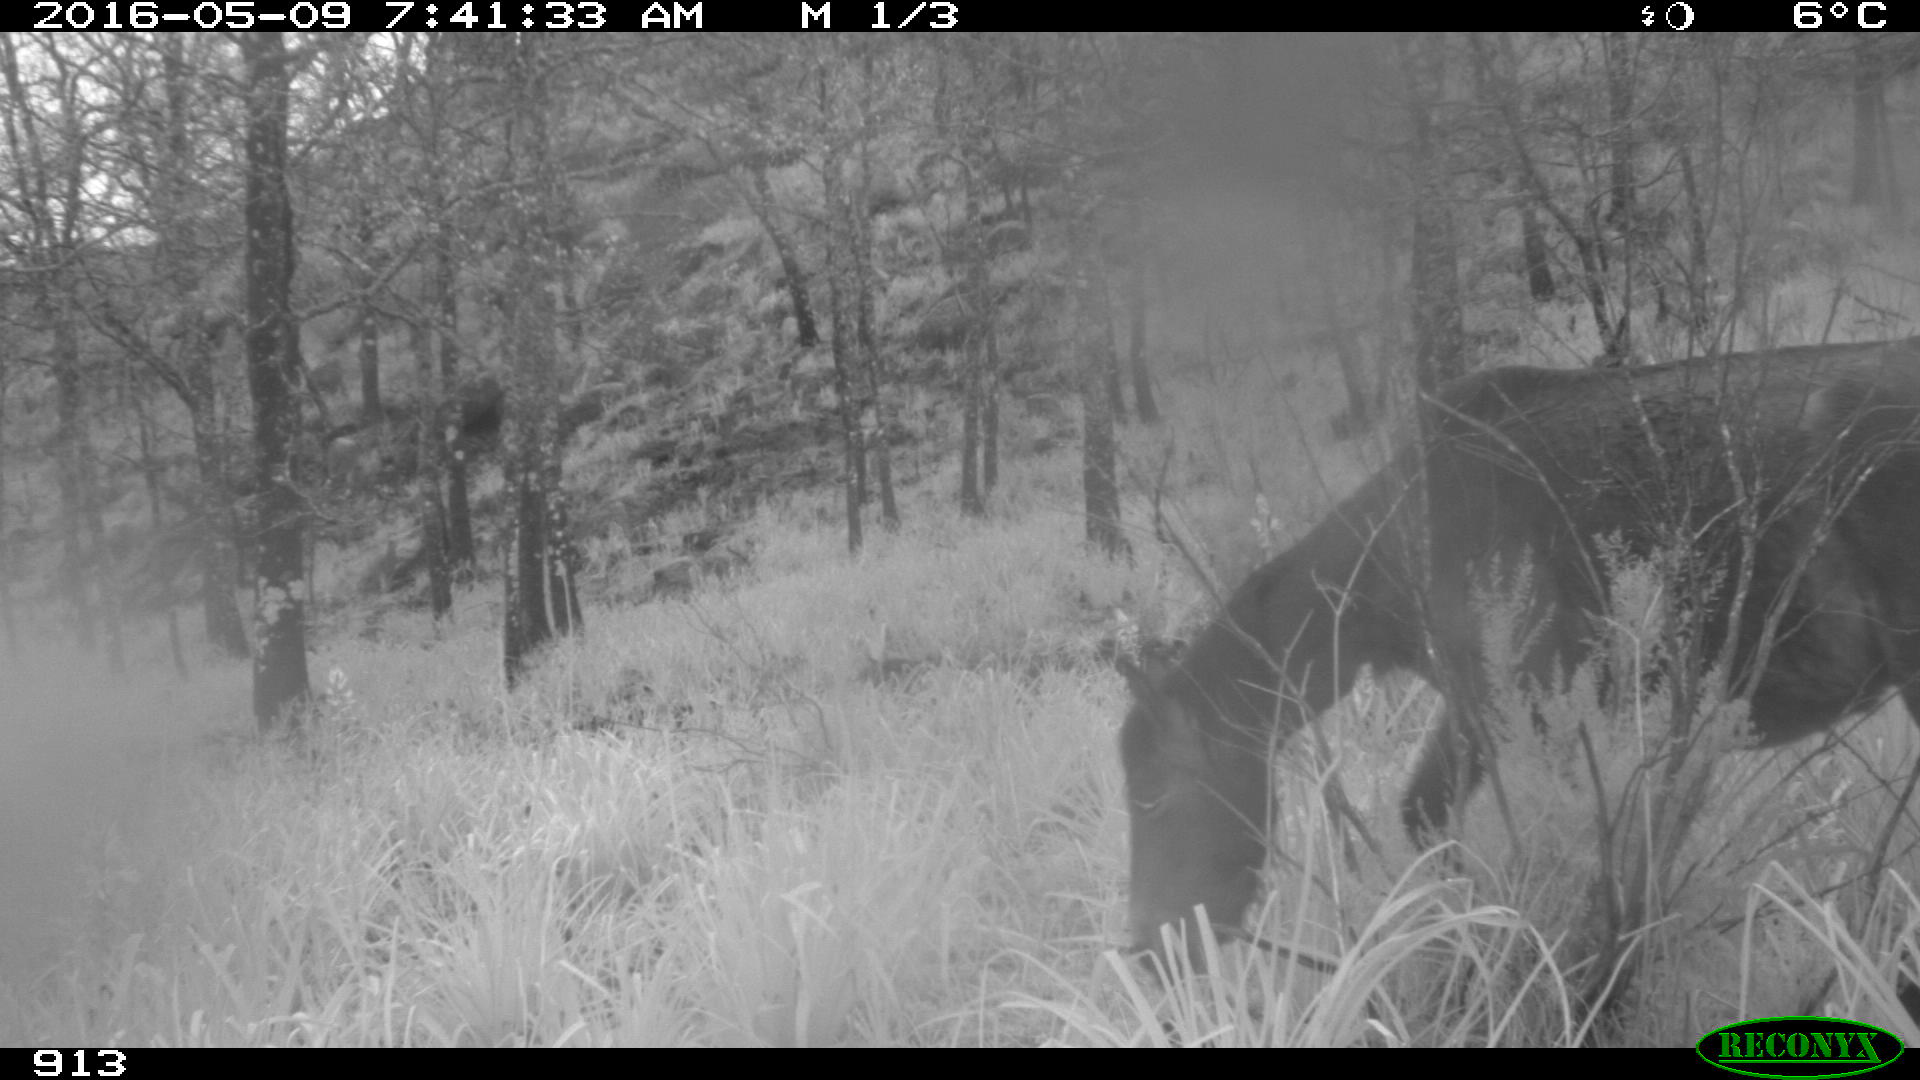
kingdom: Animalia
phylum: Chordata
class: Mammalia
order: Perissodactyla
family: Equidae
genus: Equus
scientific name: Equus caballus
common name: Horse
